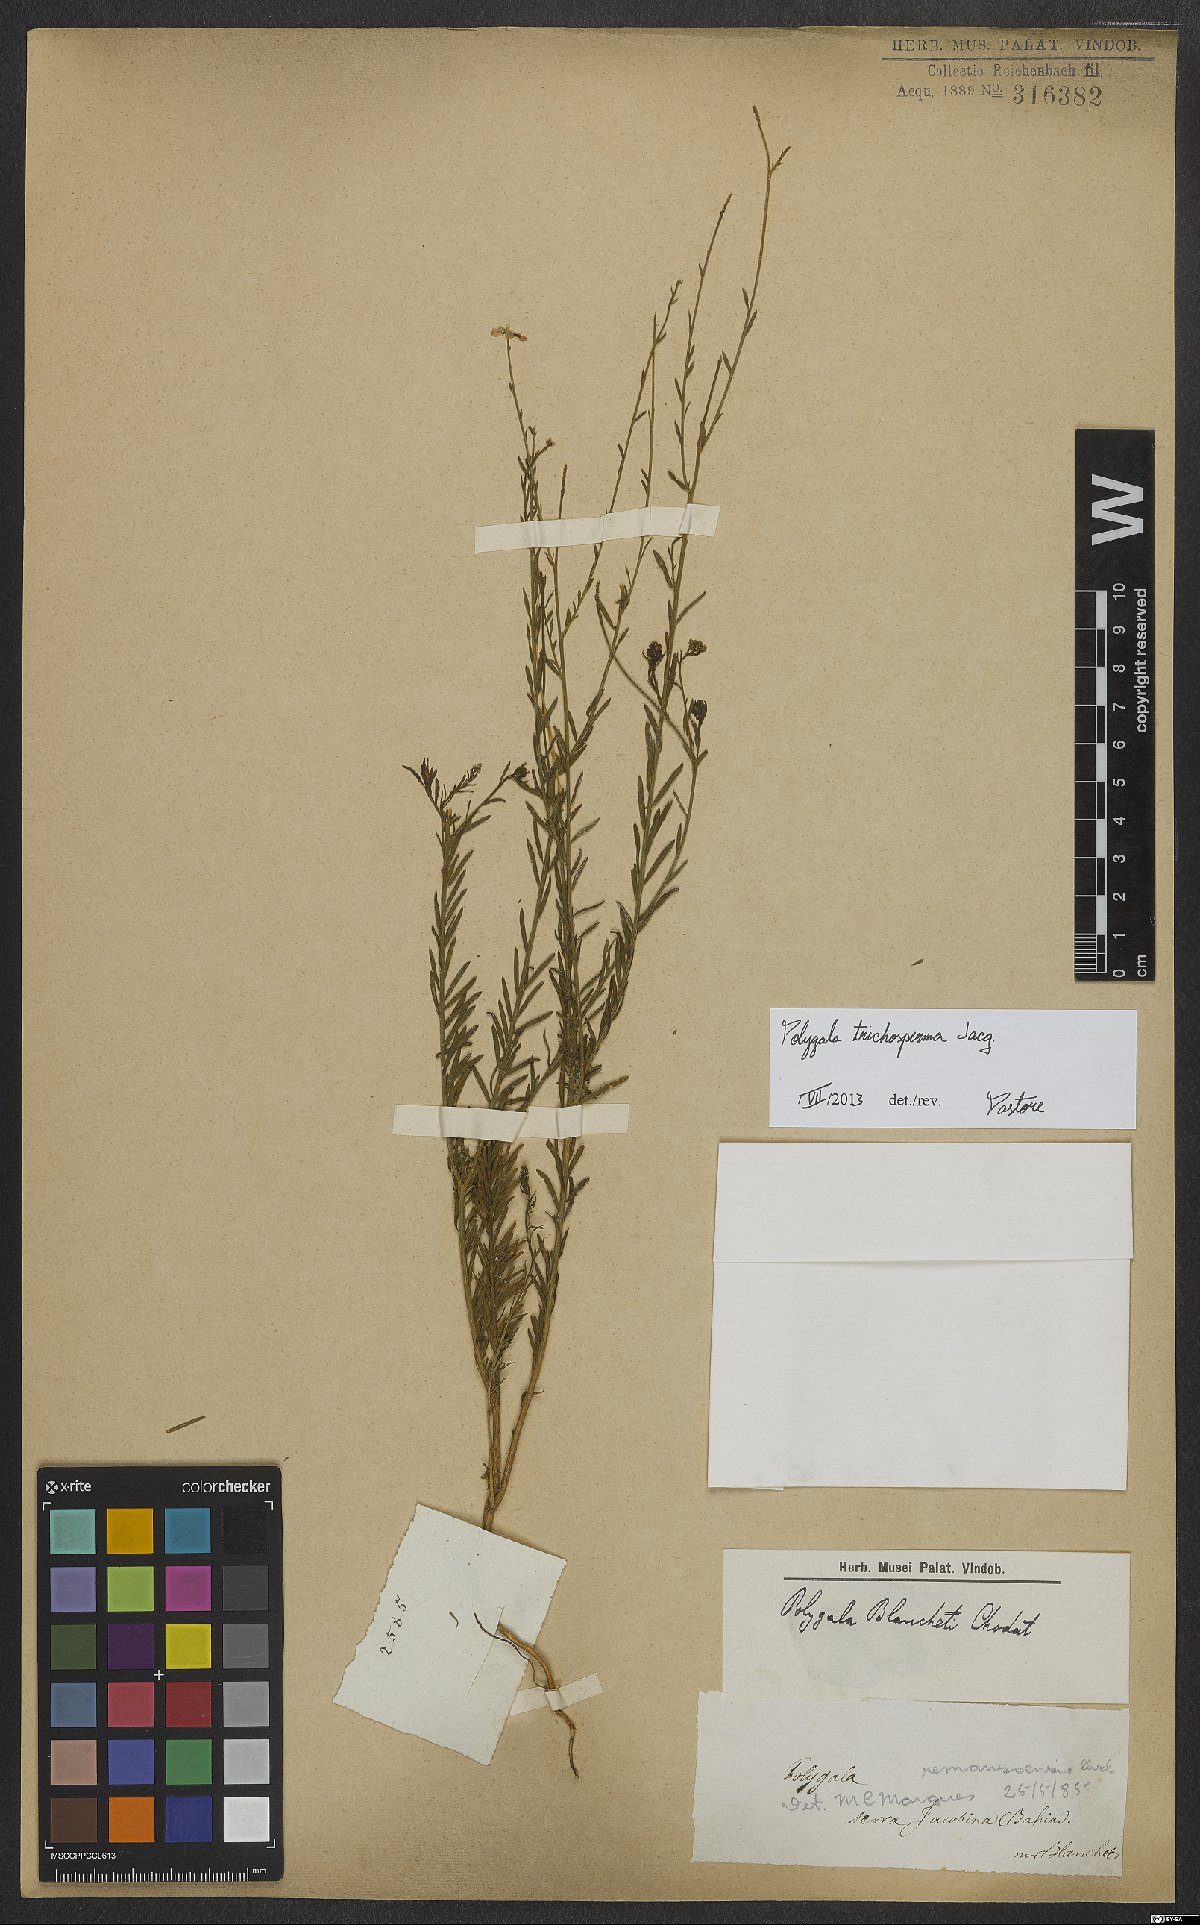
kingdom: Plantae
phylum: Tracheophyta
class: Magnoliopsida
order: Fabales
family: Polygalaceae
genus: Polygala
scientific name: Polygala trichosperma
